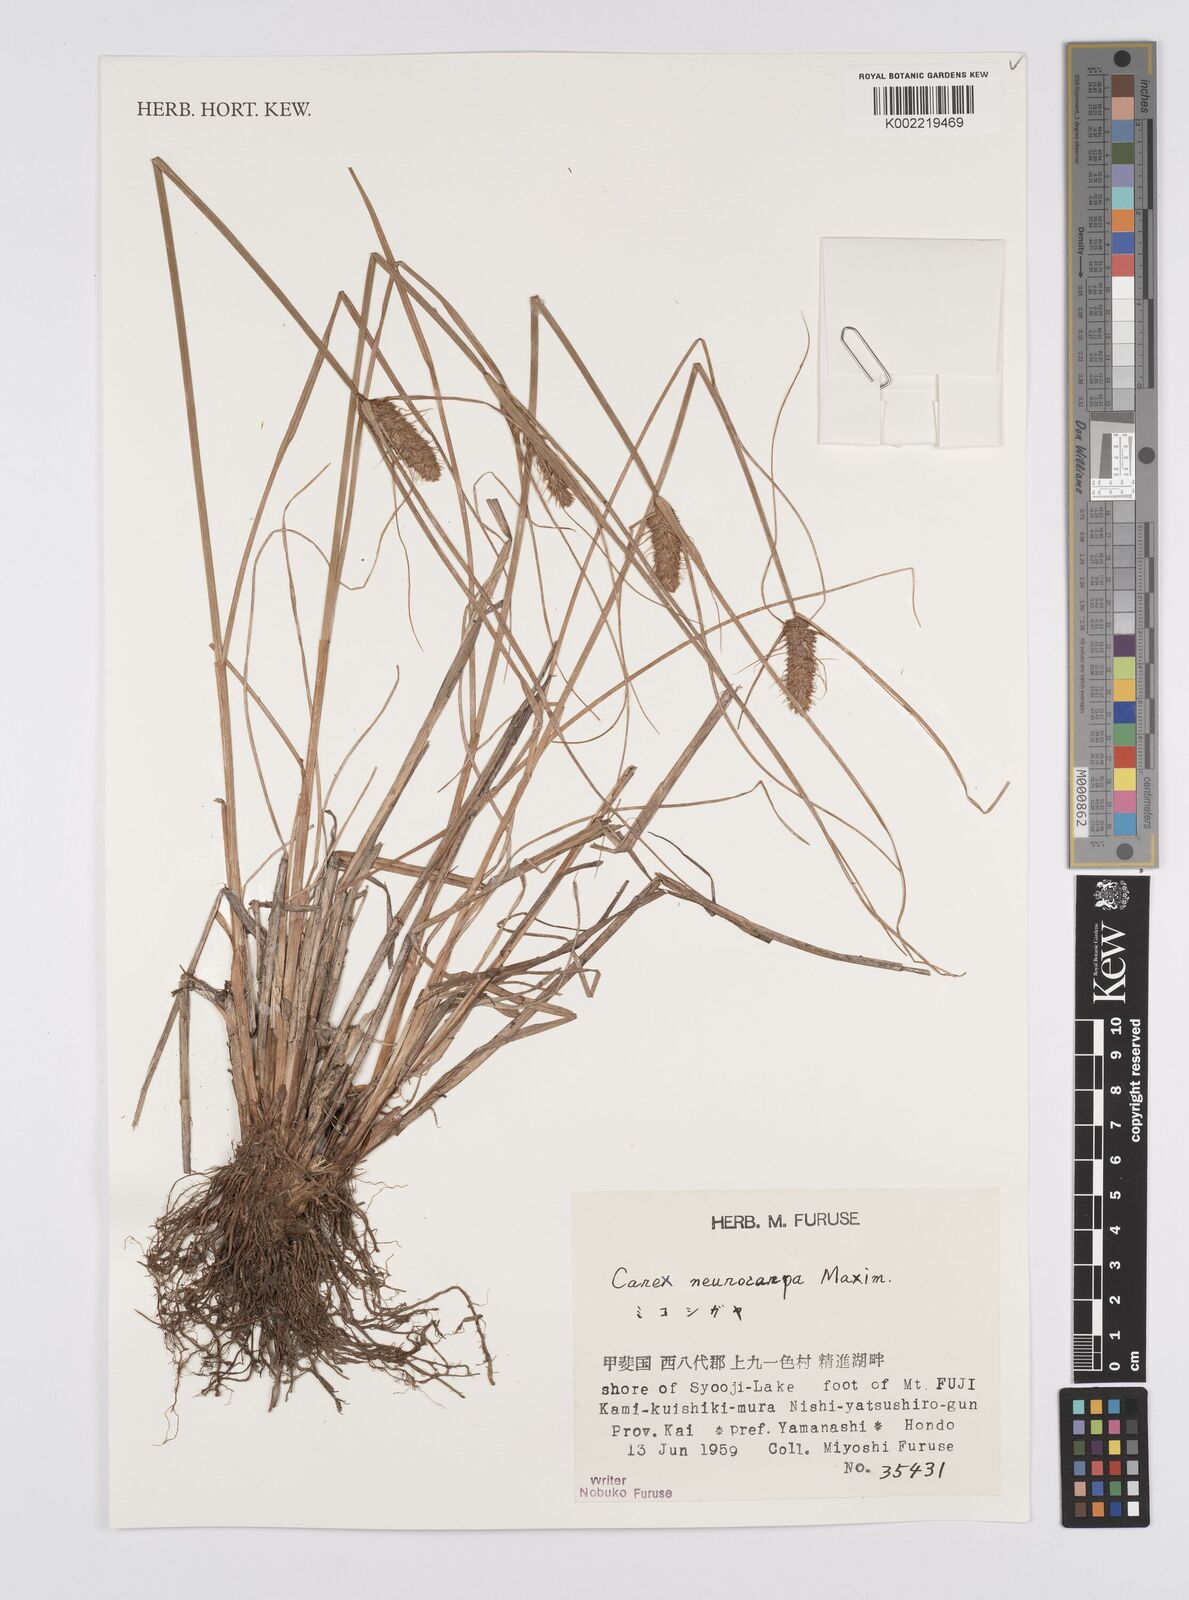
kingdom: Plantae
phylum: Tracheophyta
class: Liliopsida
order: Poales
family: Cyperaceae
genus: Carex
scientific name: Carex neurocarpa
